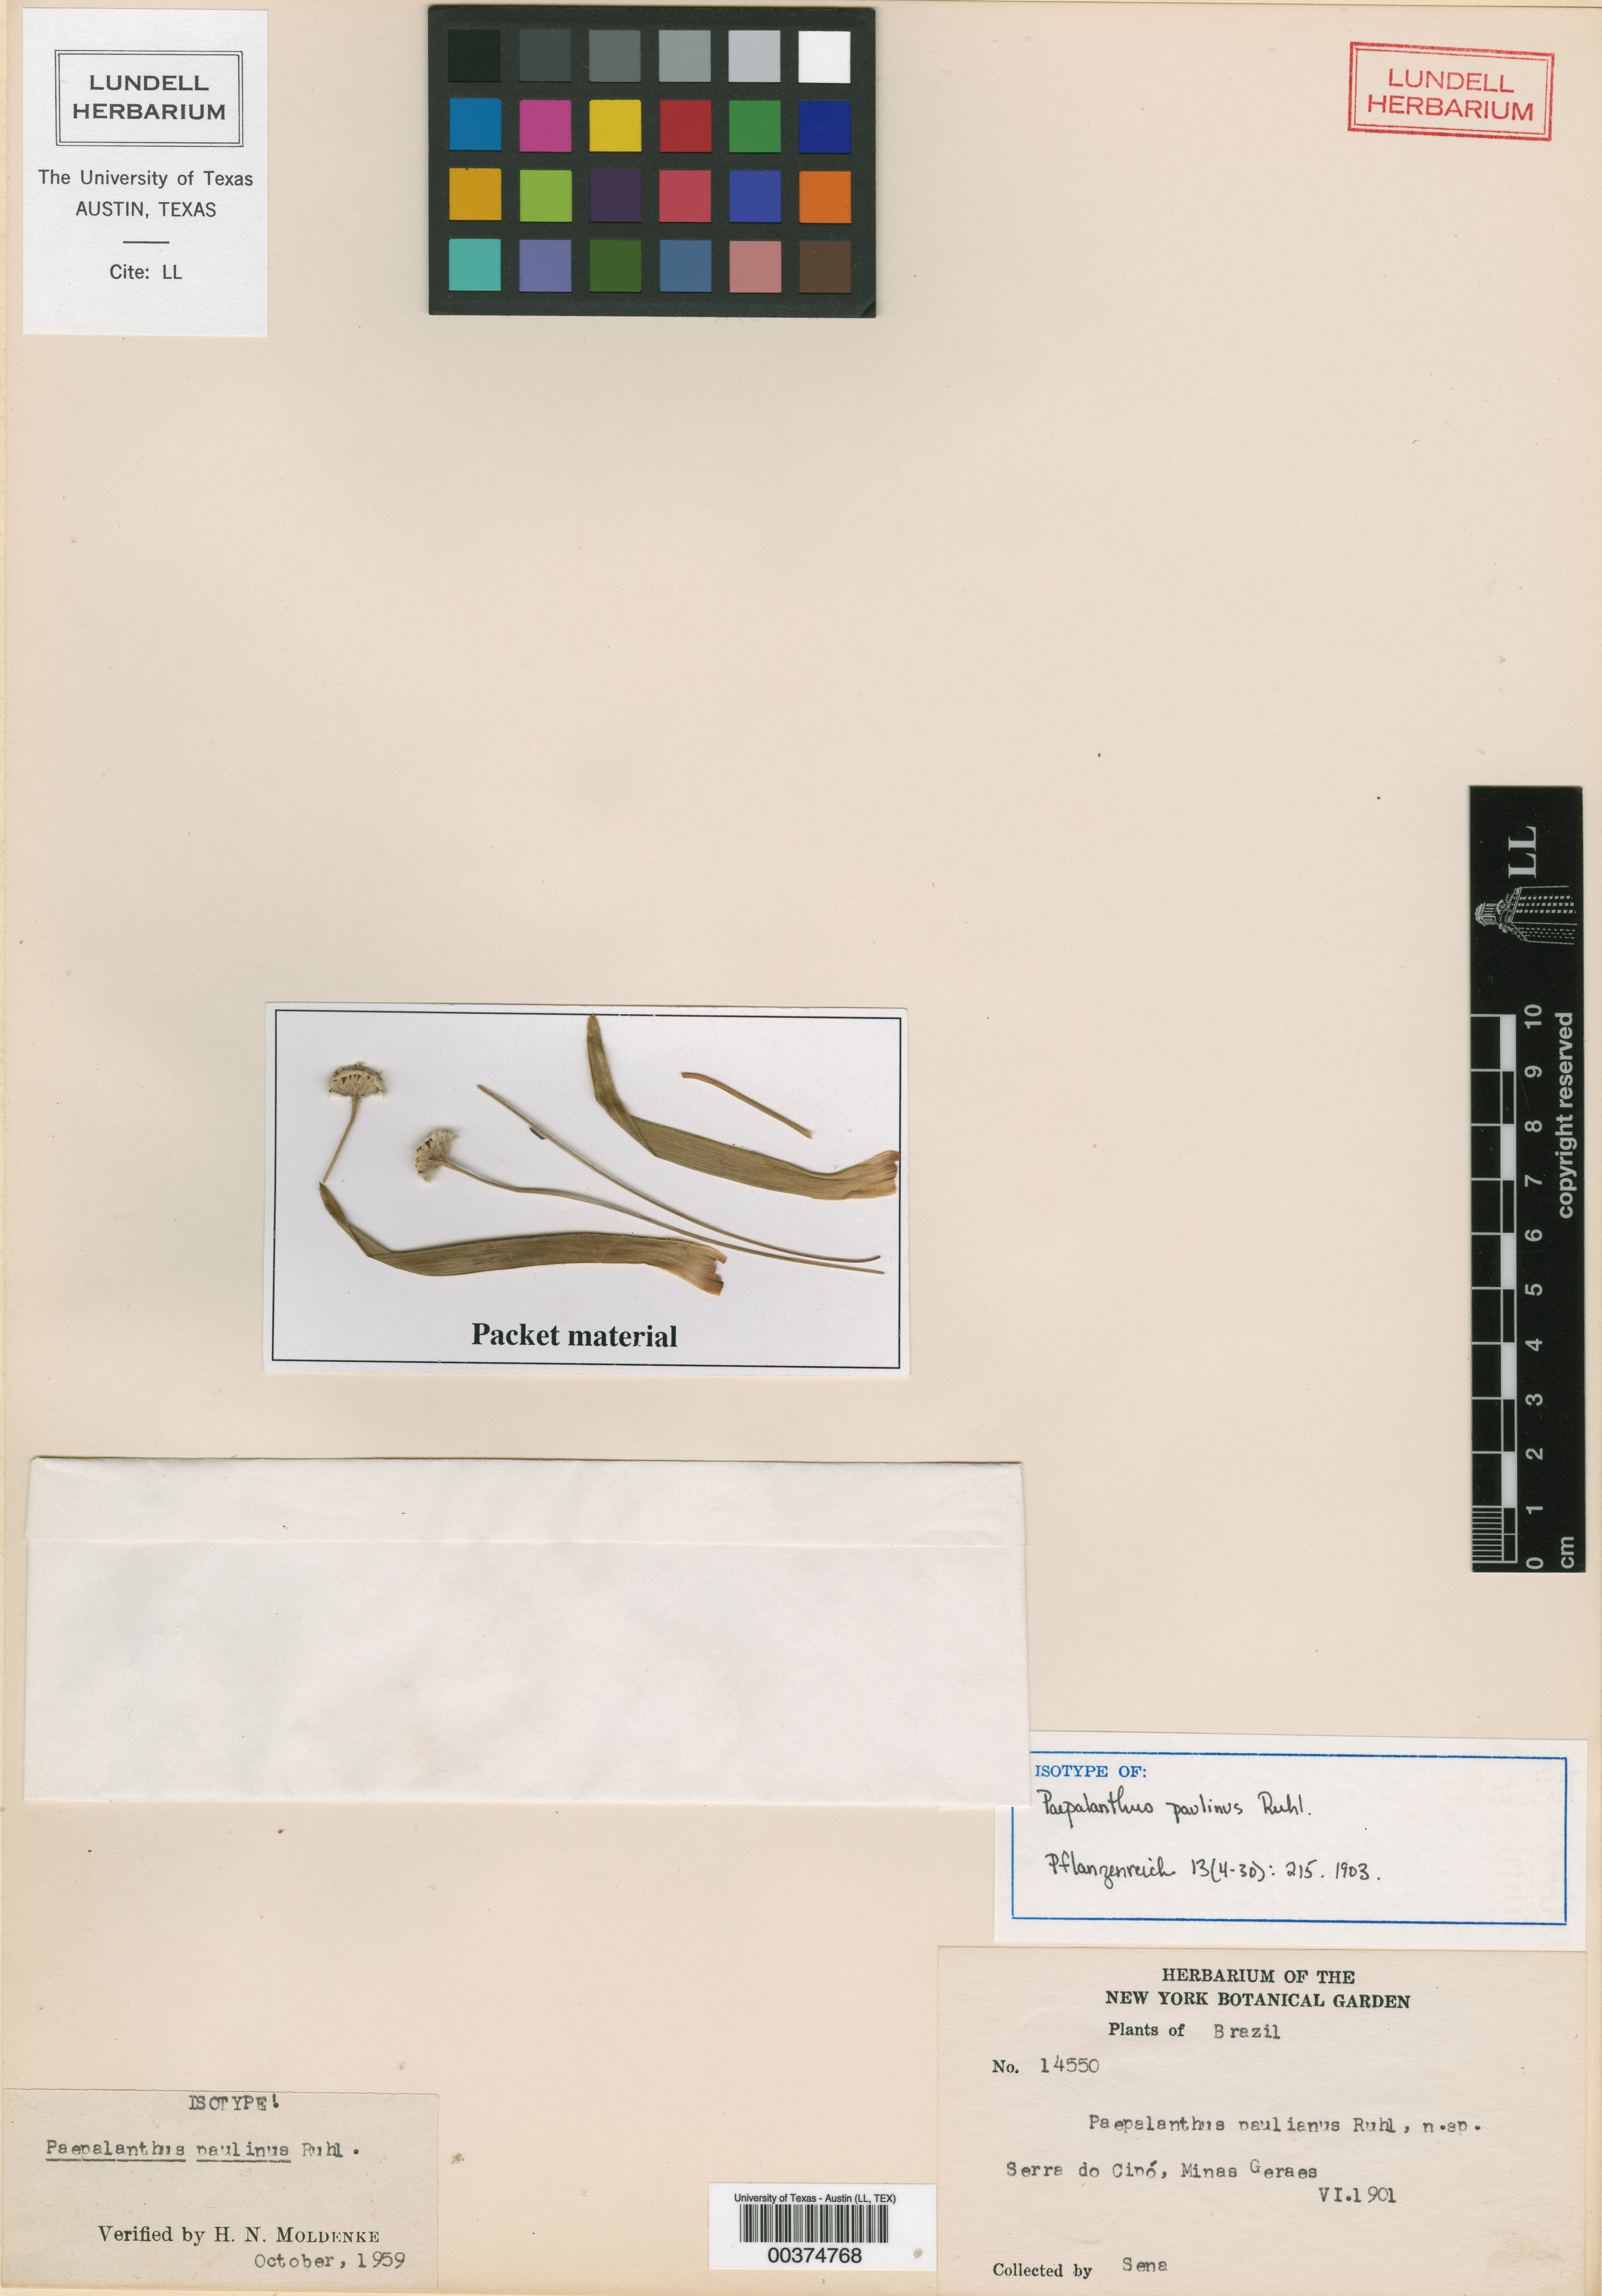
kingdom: Plantae
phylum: Tracheophyta
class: Liliopsida
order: Poales
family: Eriocaulaceae
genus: Paepalanthus
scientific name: Paepalanthus paulinus
